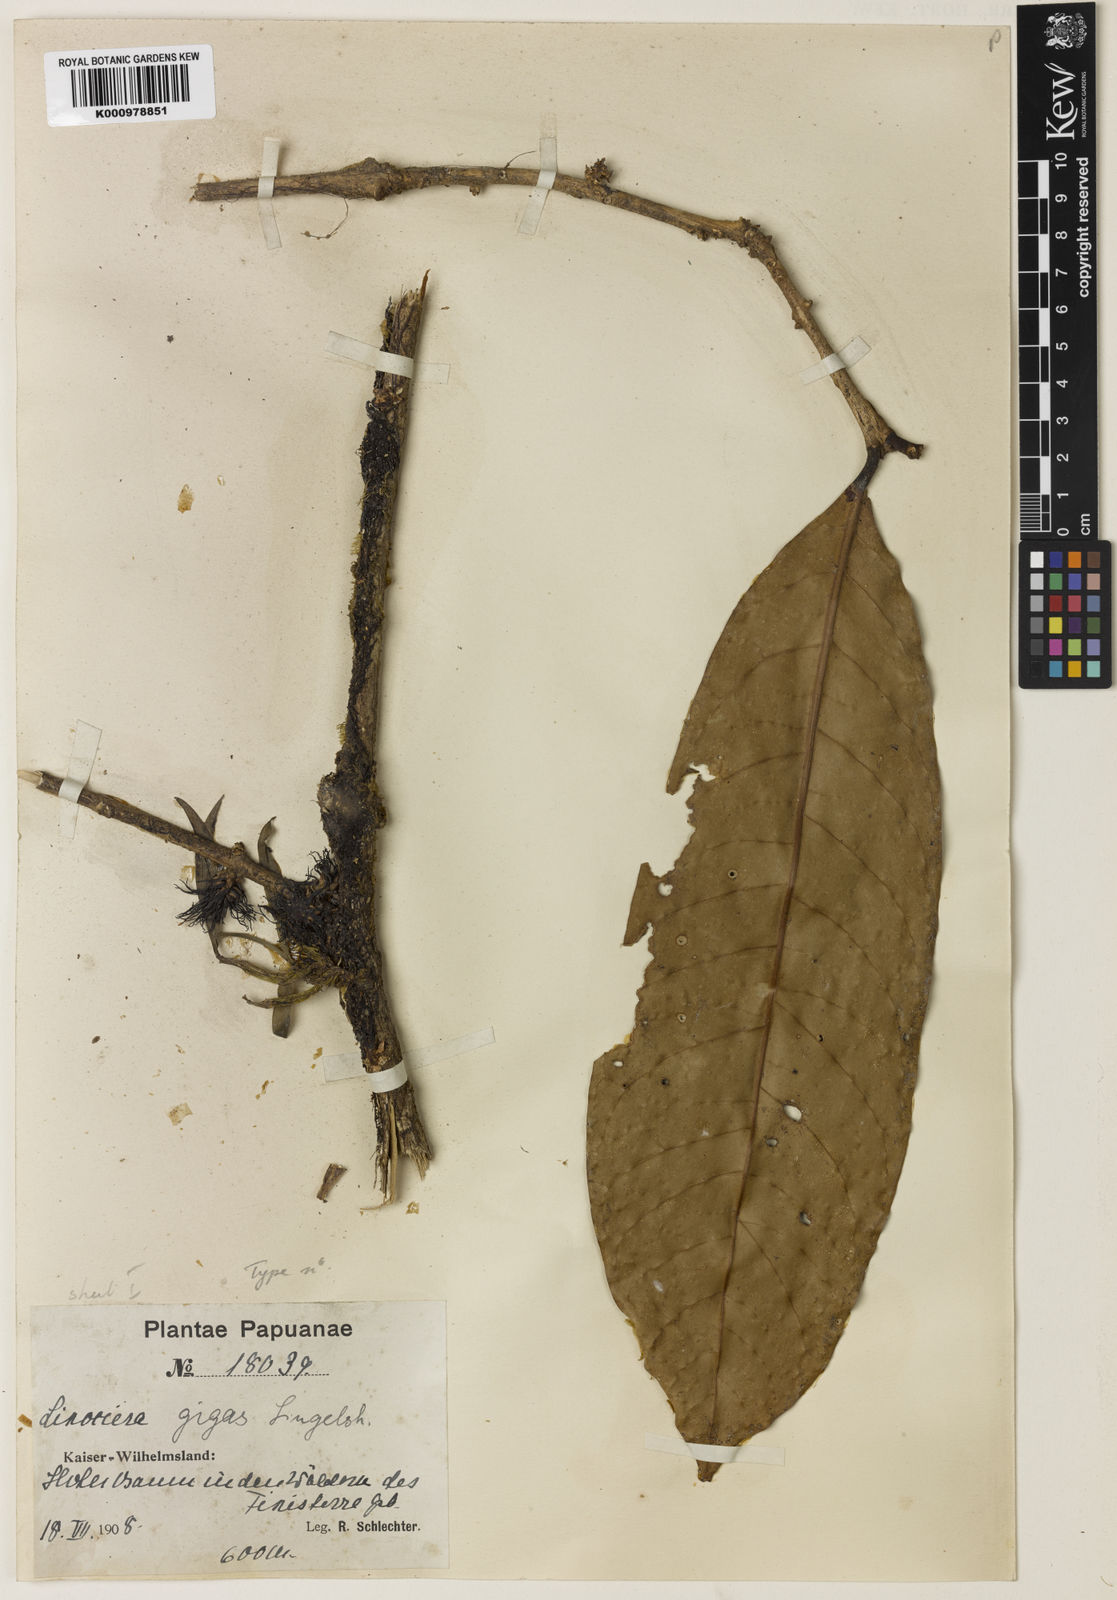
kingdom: Plantae
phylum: Tracheophyta
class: Magnoliopsida
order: Lamiales
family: Oleaceae
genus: Chionanthus
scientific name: Chionanthus gigas
